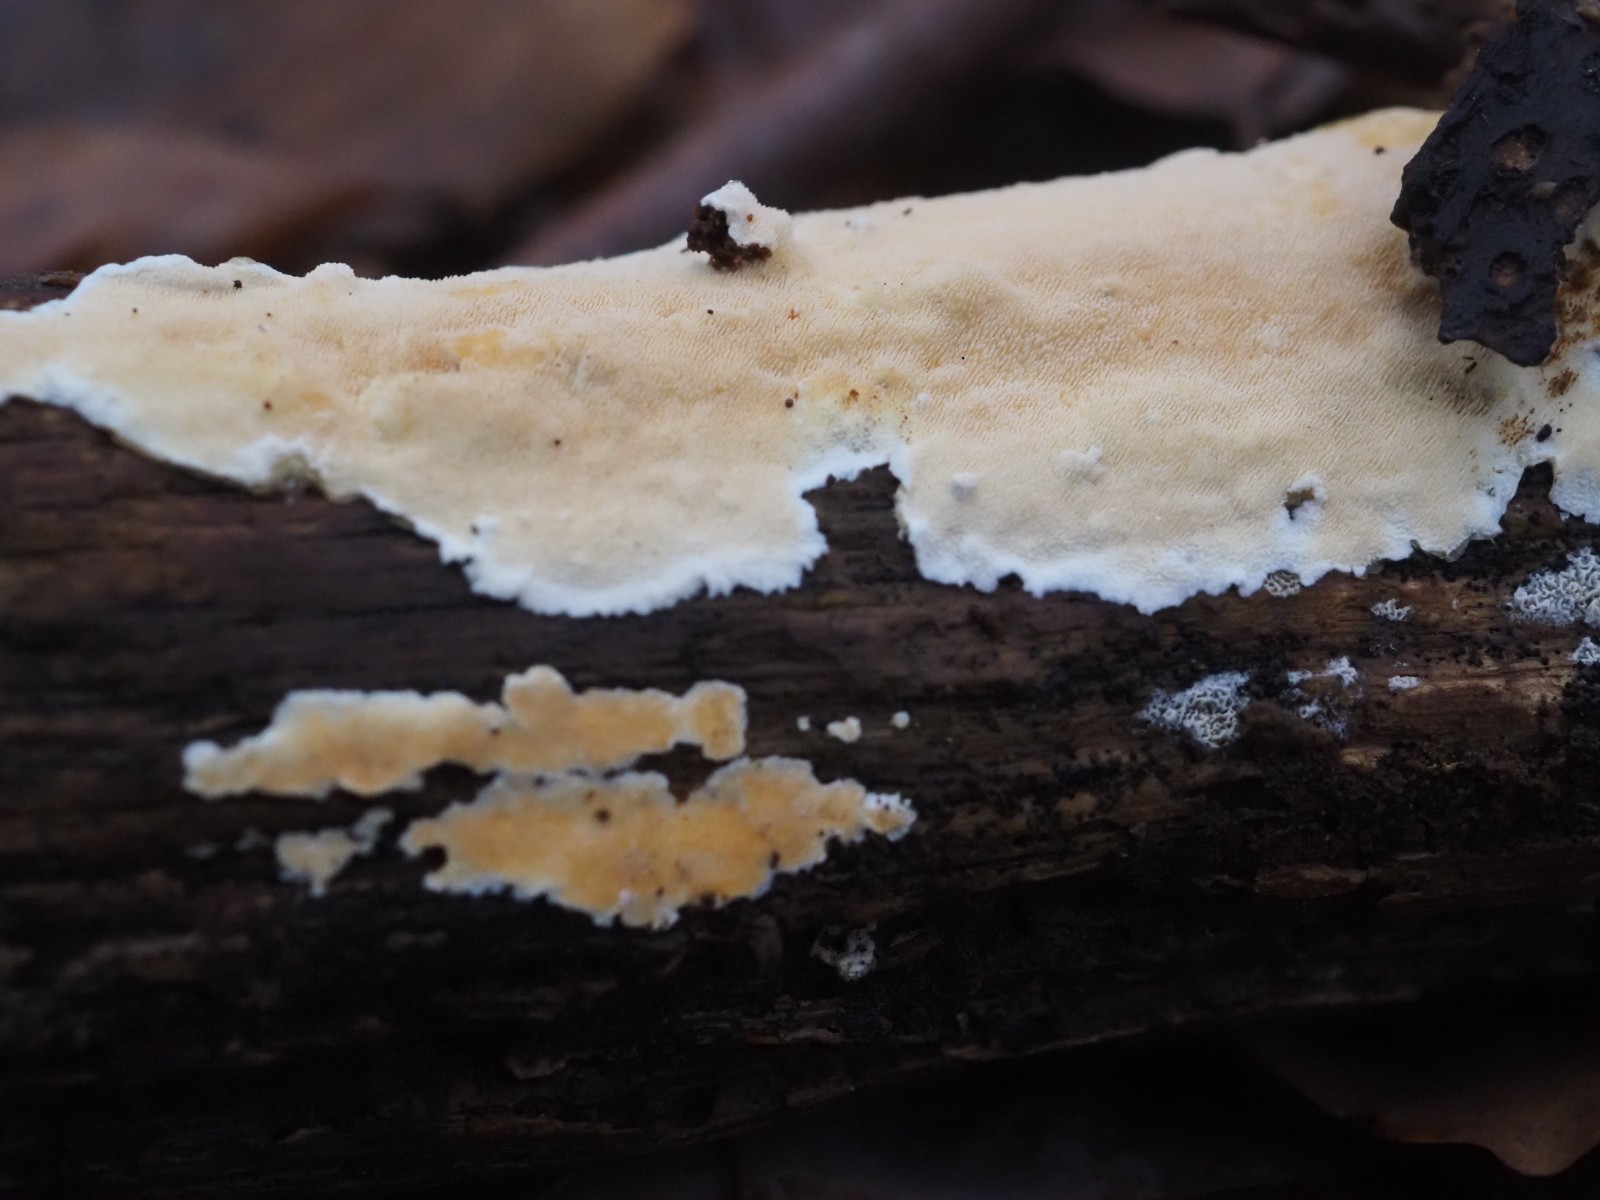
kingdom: Fungi
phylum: Basidiomycota
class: Agaricomycetes
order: Polyporales
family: Steccherinaceae
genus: Steccherinum
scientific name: Steccherinum ochraceum
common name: almindelig skønpig
